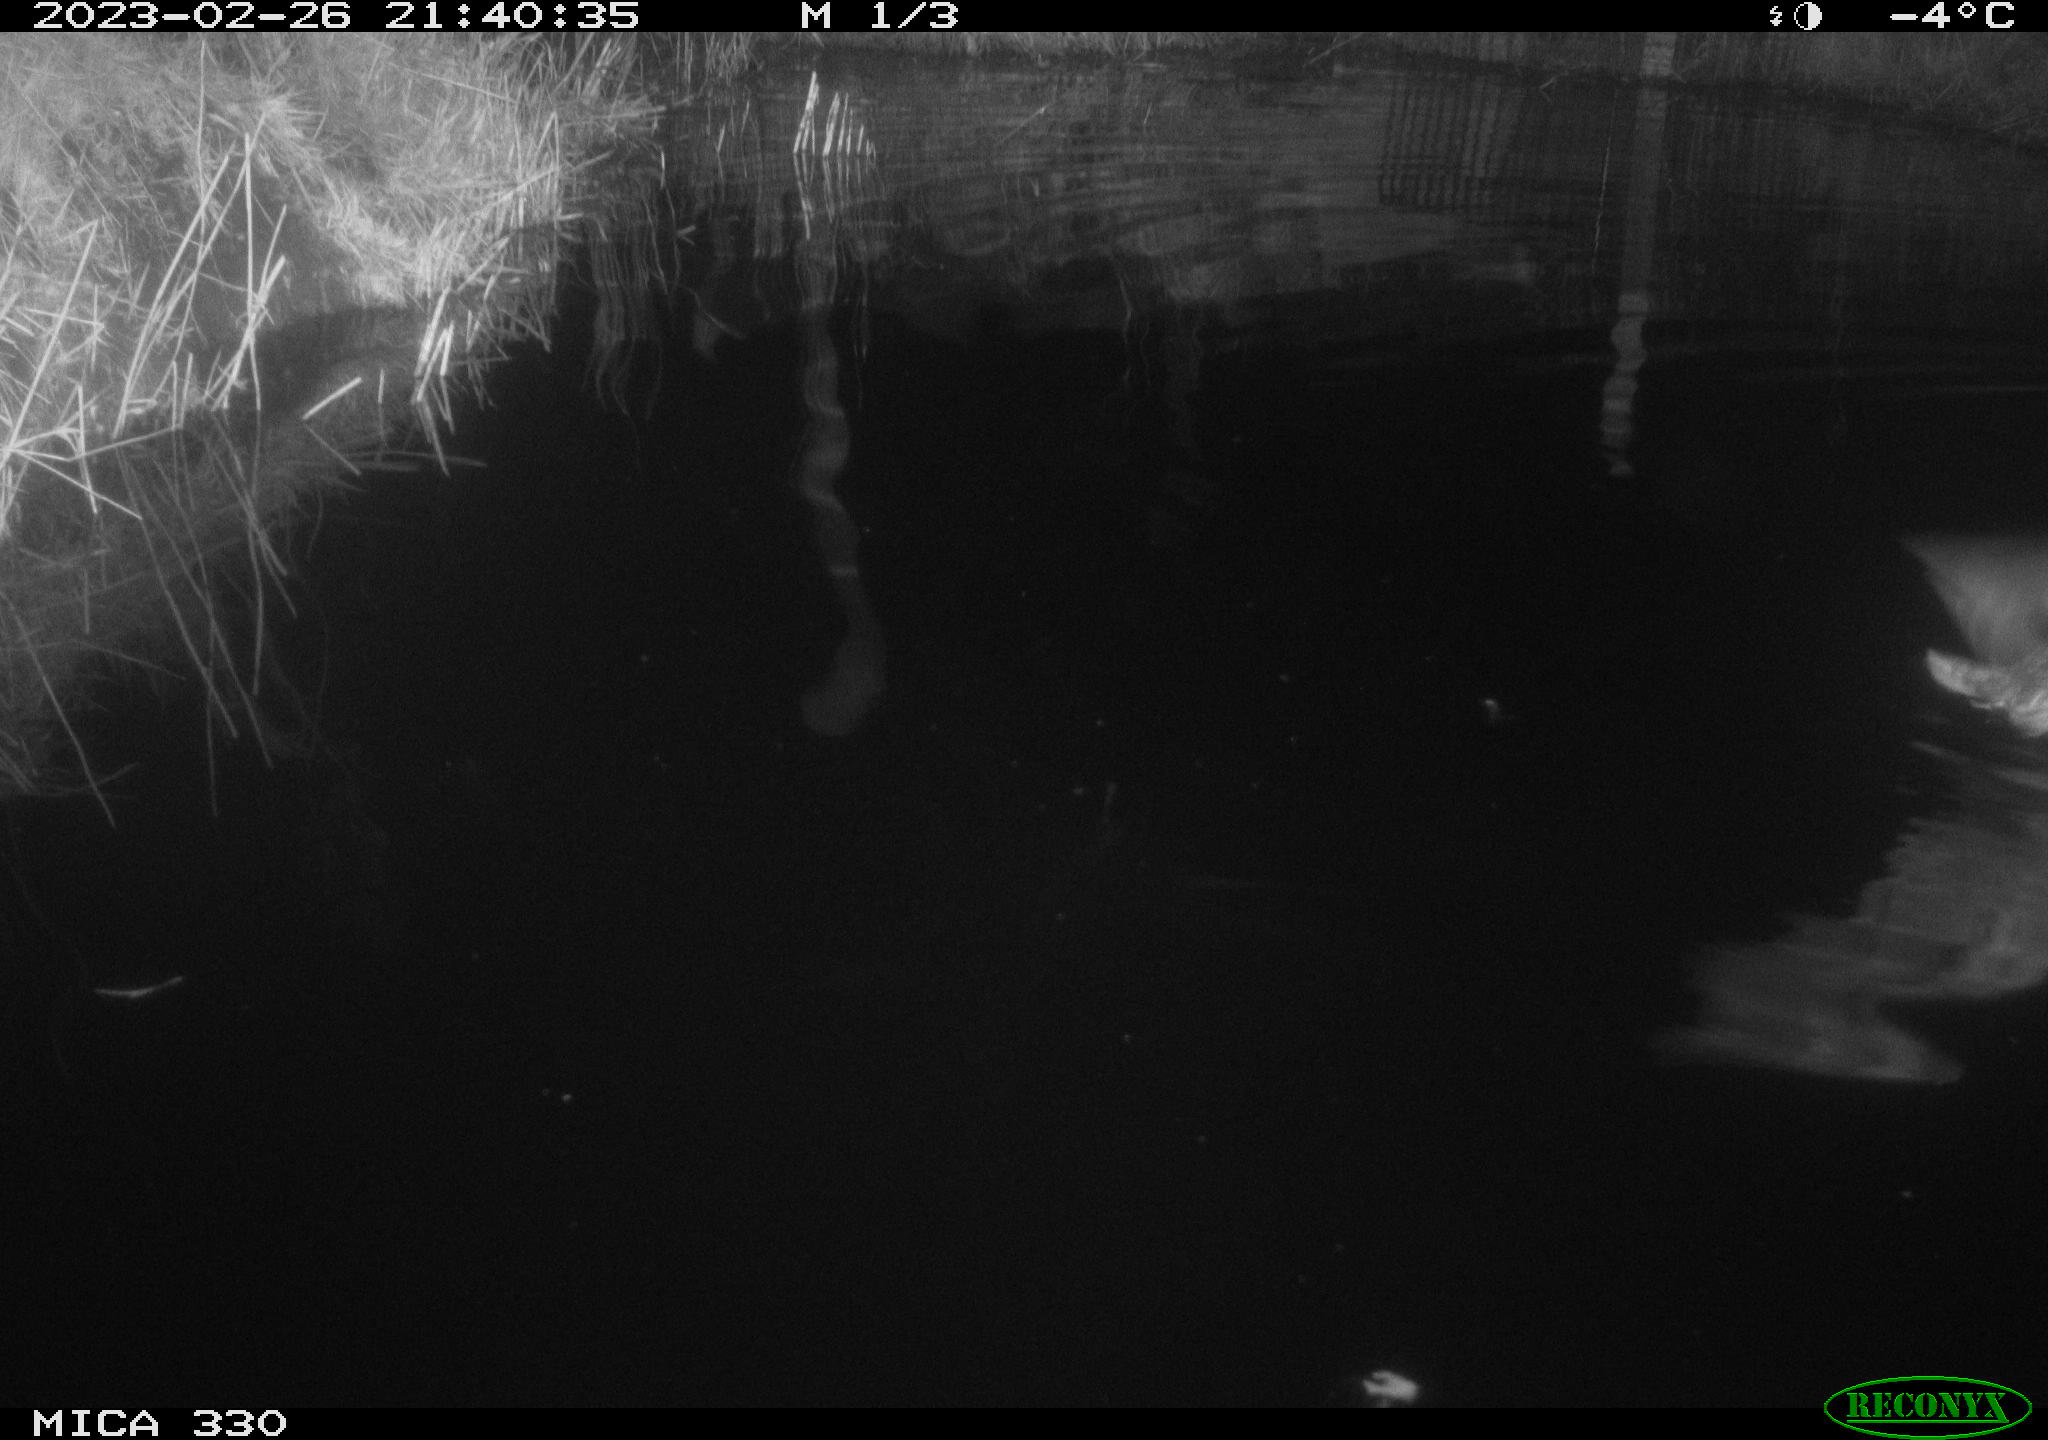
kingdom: Animalia
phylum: Chordata
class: Aves
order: Anseriformes
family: Anatidae
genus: Anas
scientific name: Anas platyrhynchos
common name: Mallard
